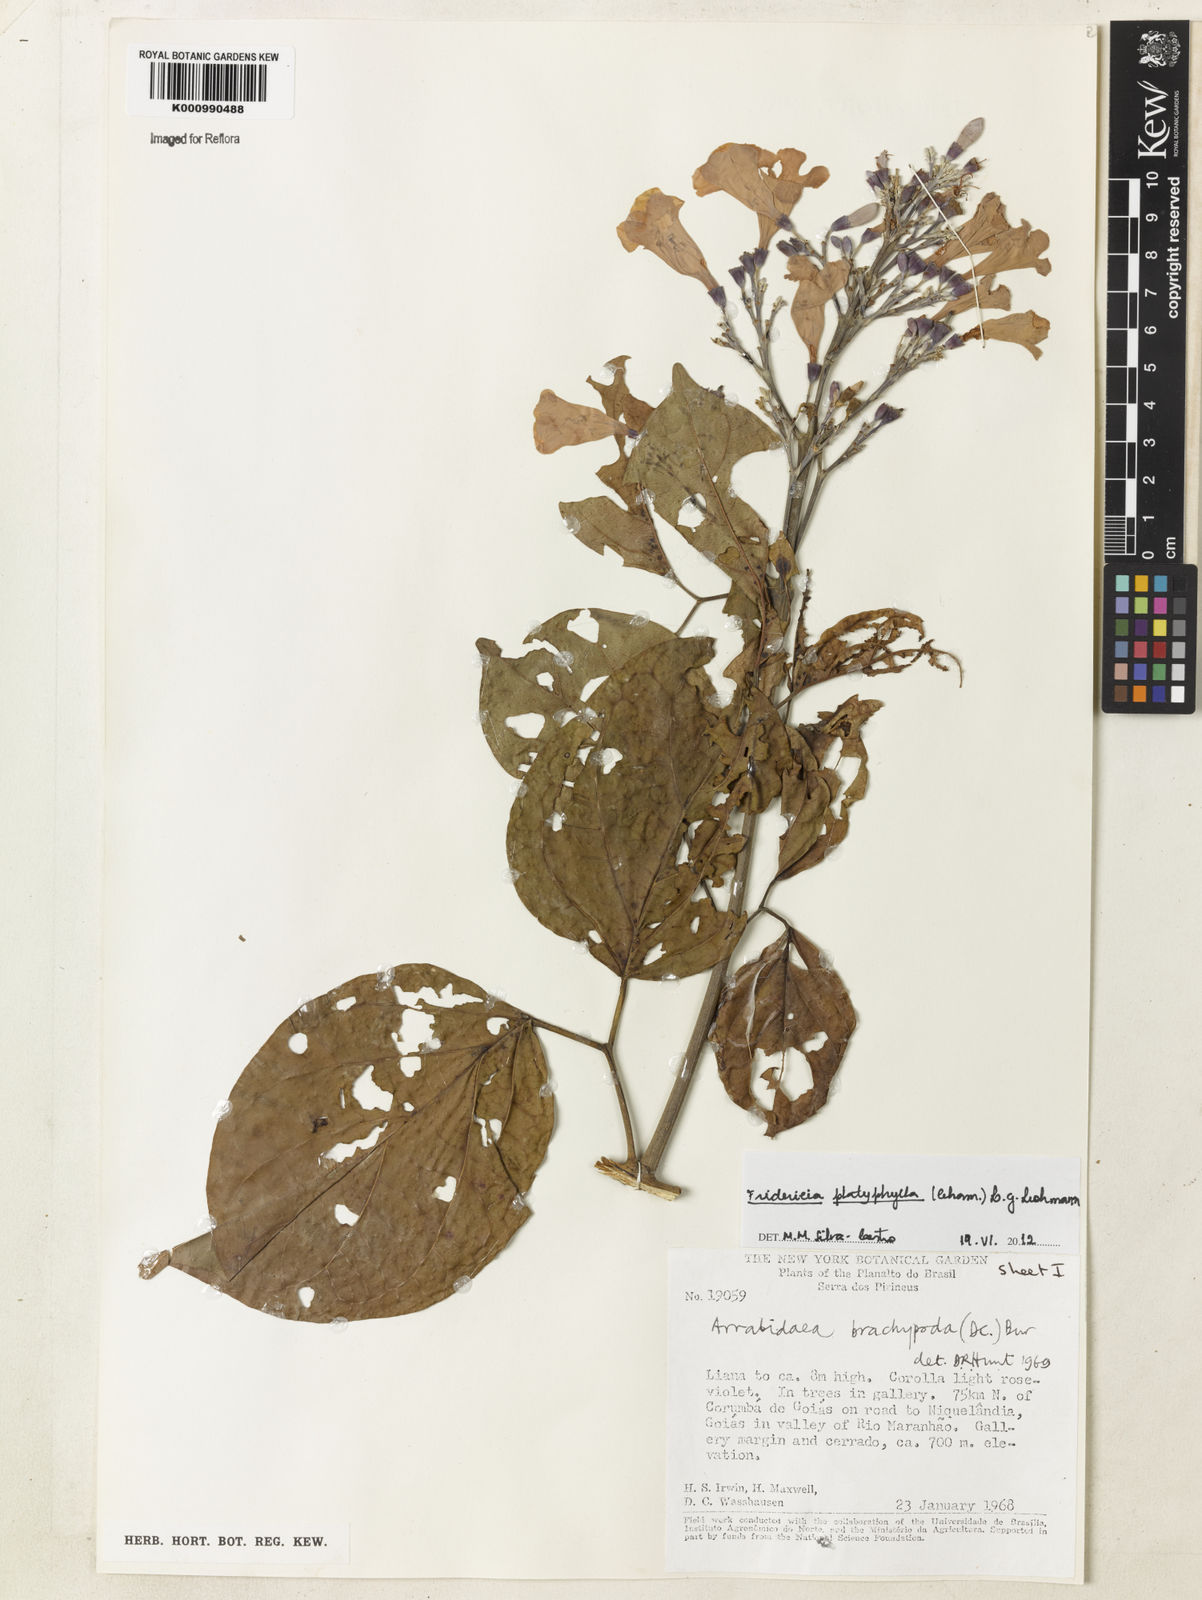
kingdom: Plantae
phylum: Tracheophyta
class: Magnoliopsida
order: Lamiales
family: Bignoniaceae
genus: Fridericia
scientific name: Fridericia platyphylla
